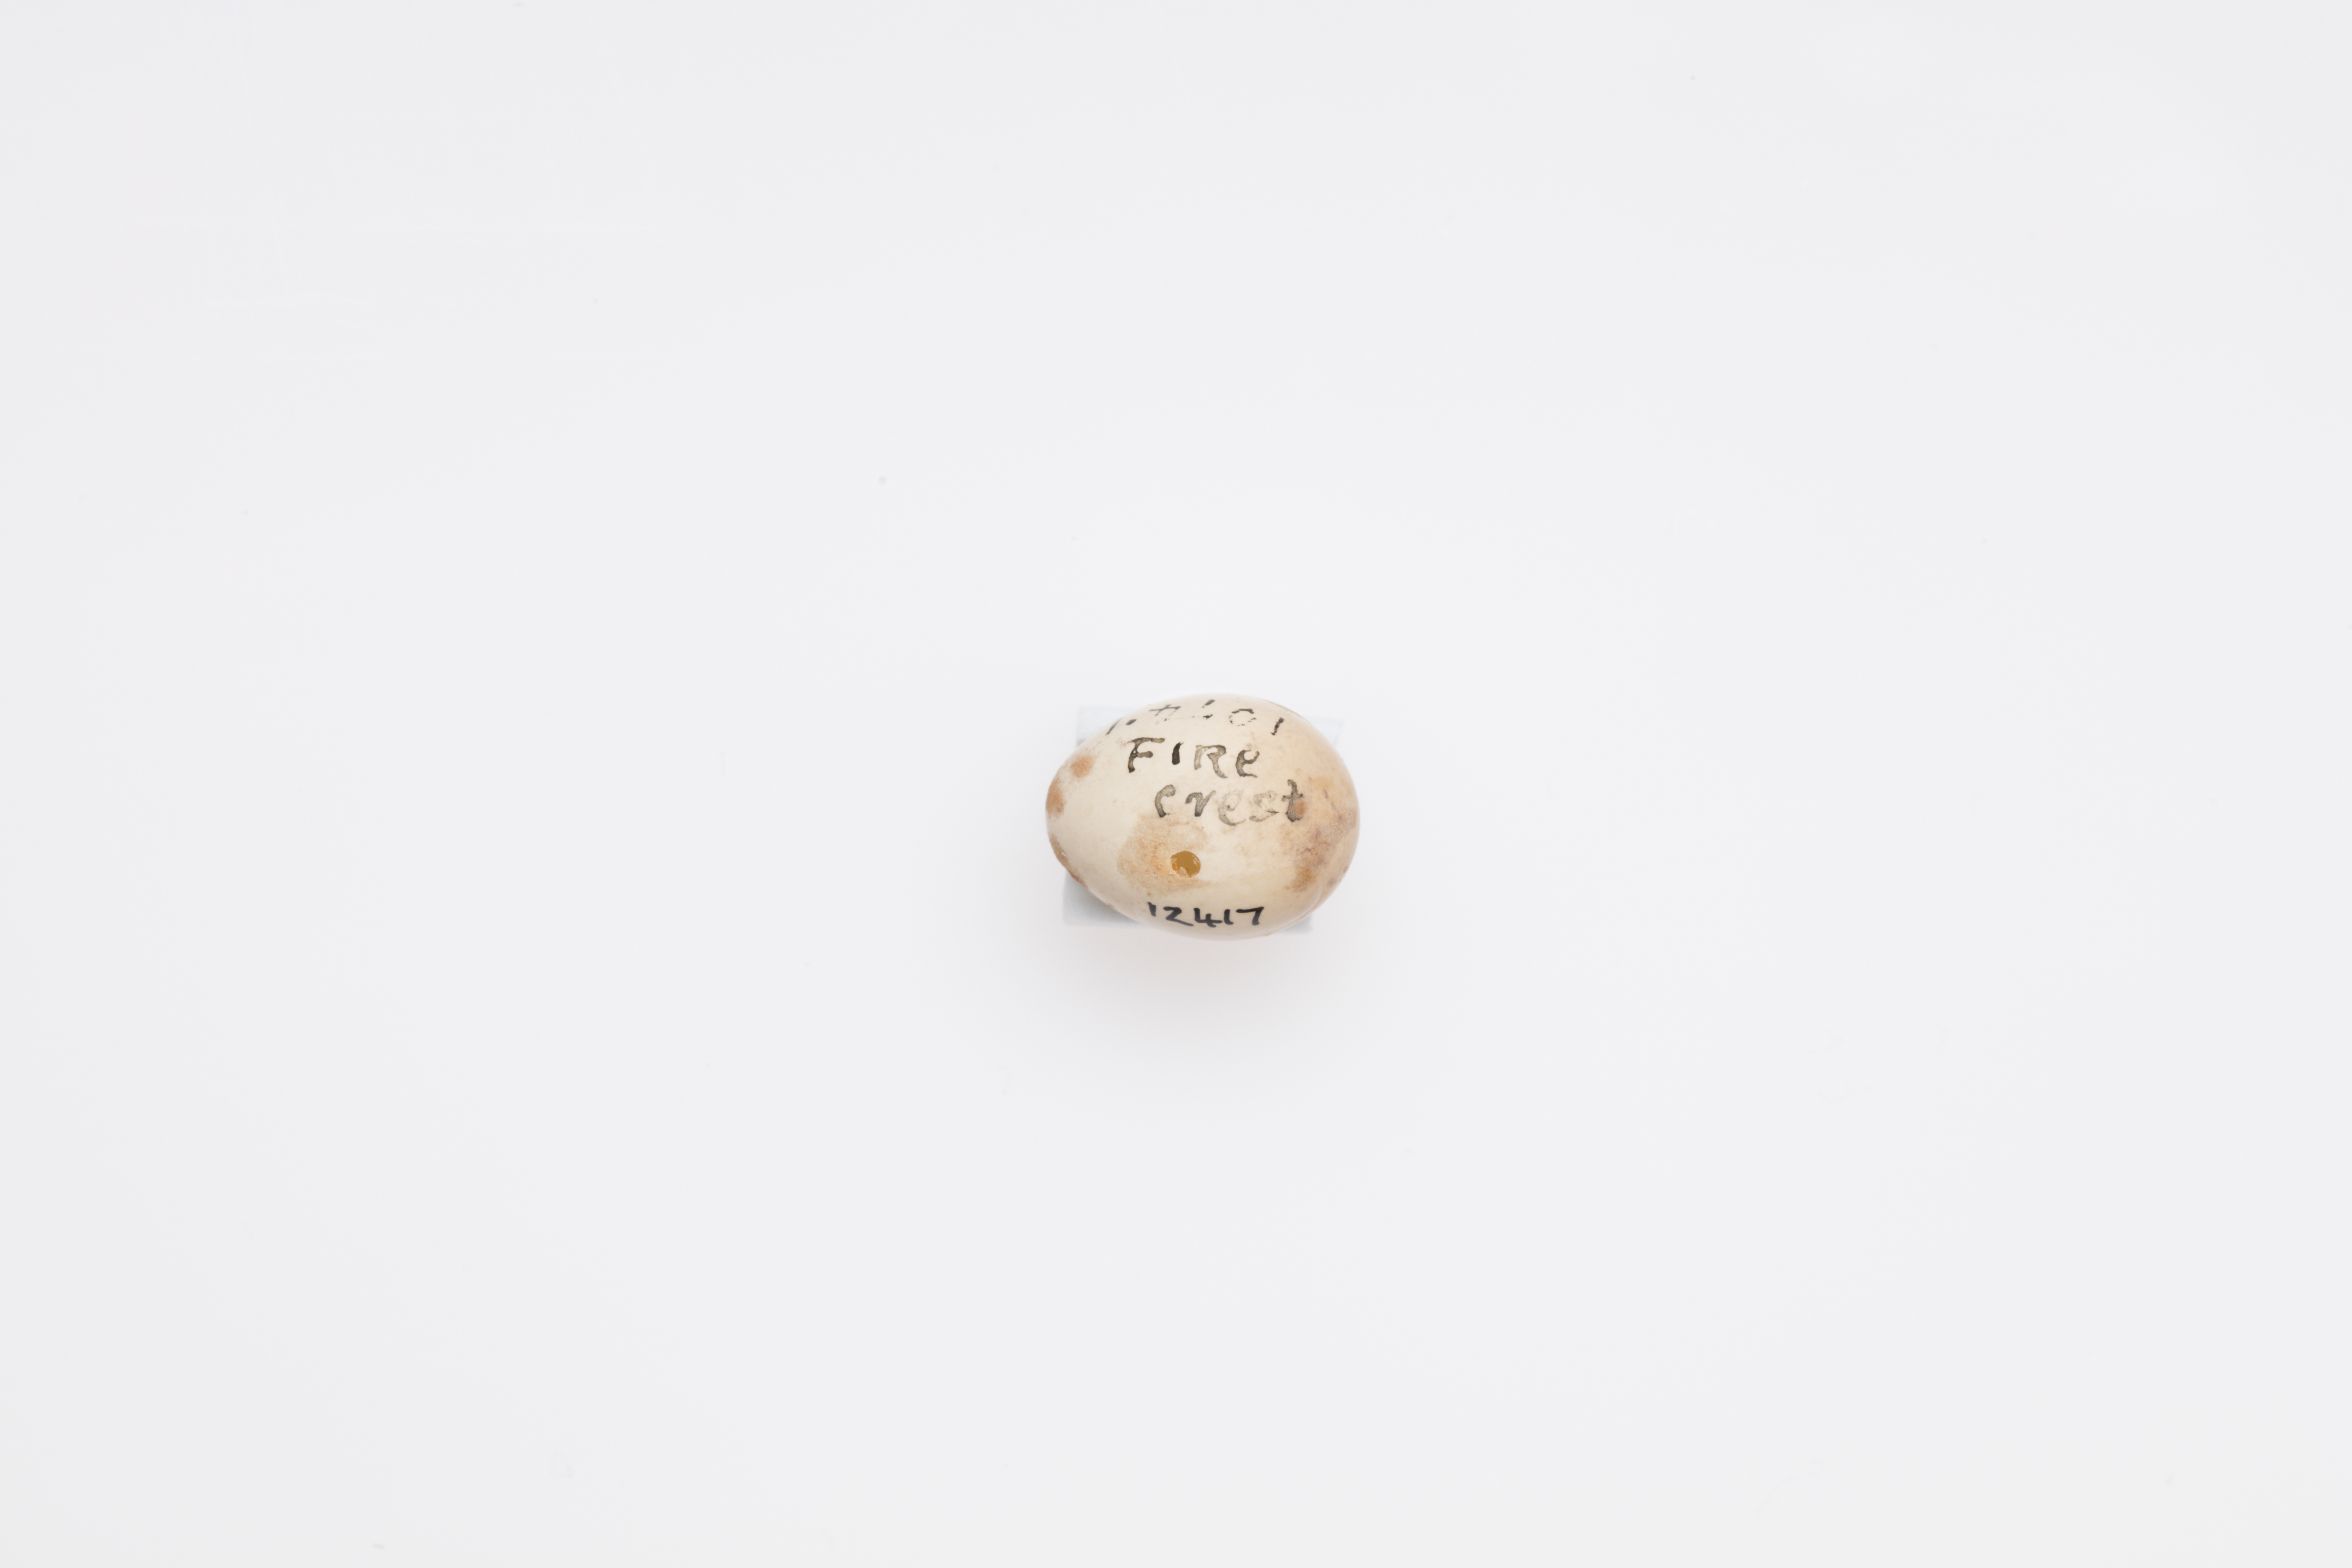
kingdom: Animalia
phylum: Chordata
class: Aves
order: Passeriformes
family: Regulidae
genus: Regulus
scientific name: Regulus regulus
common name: Goldcrest
